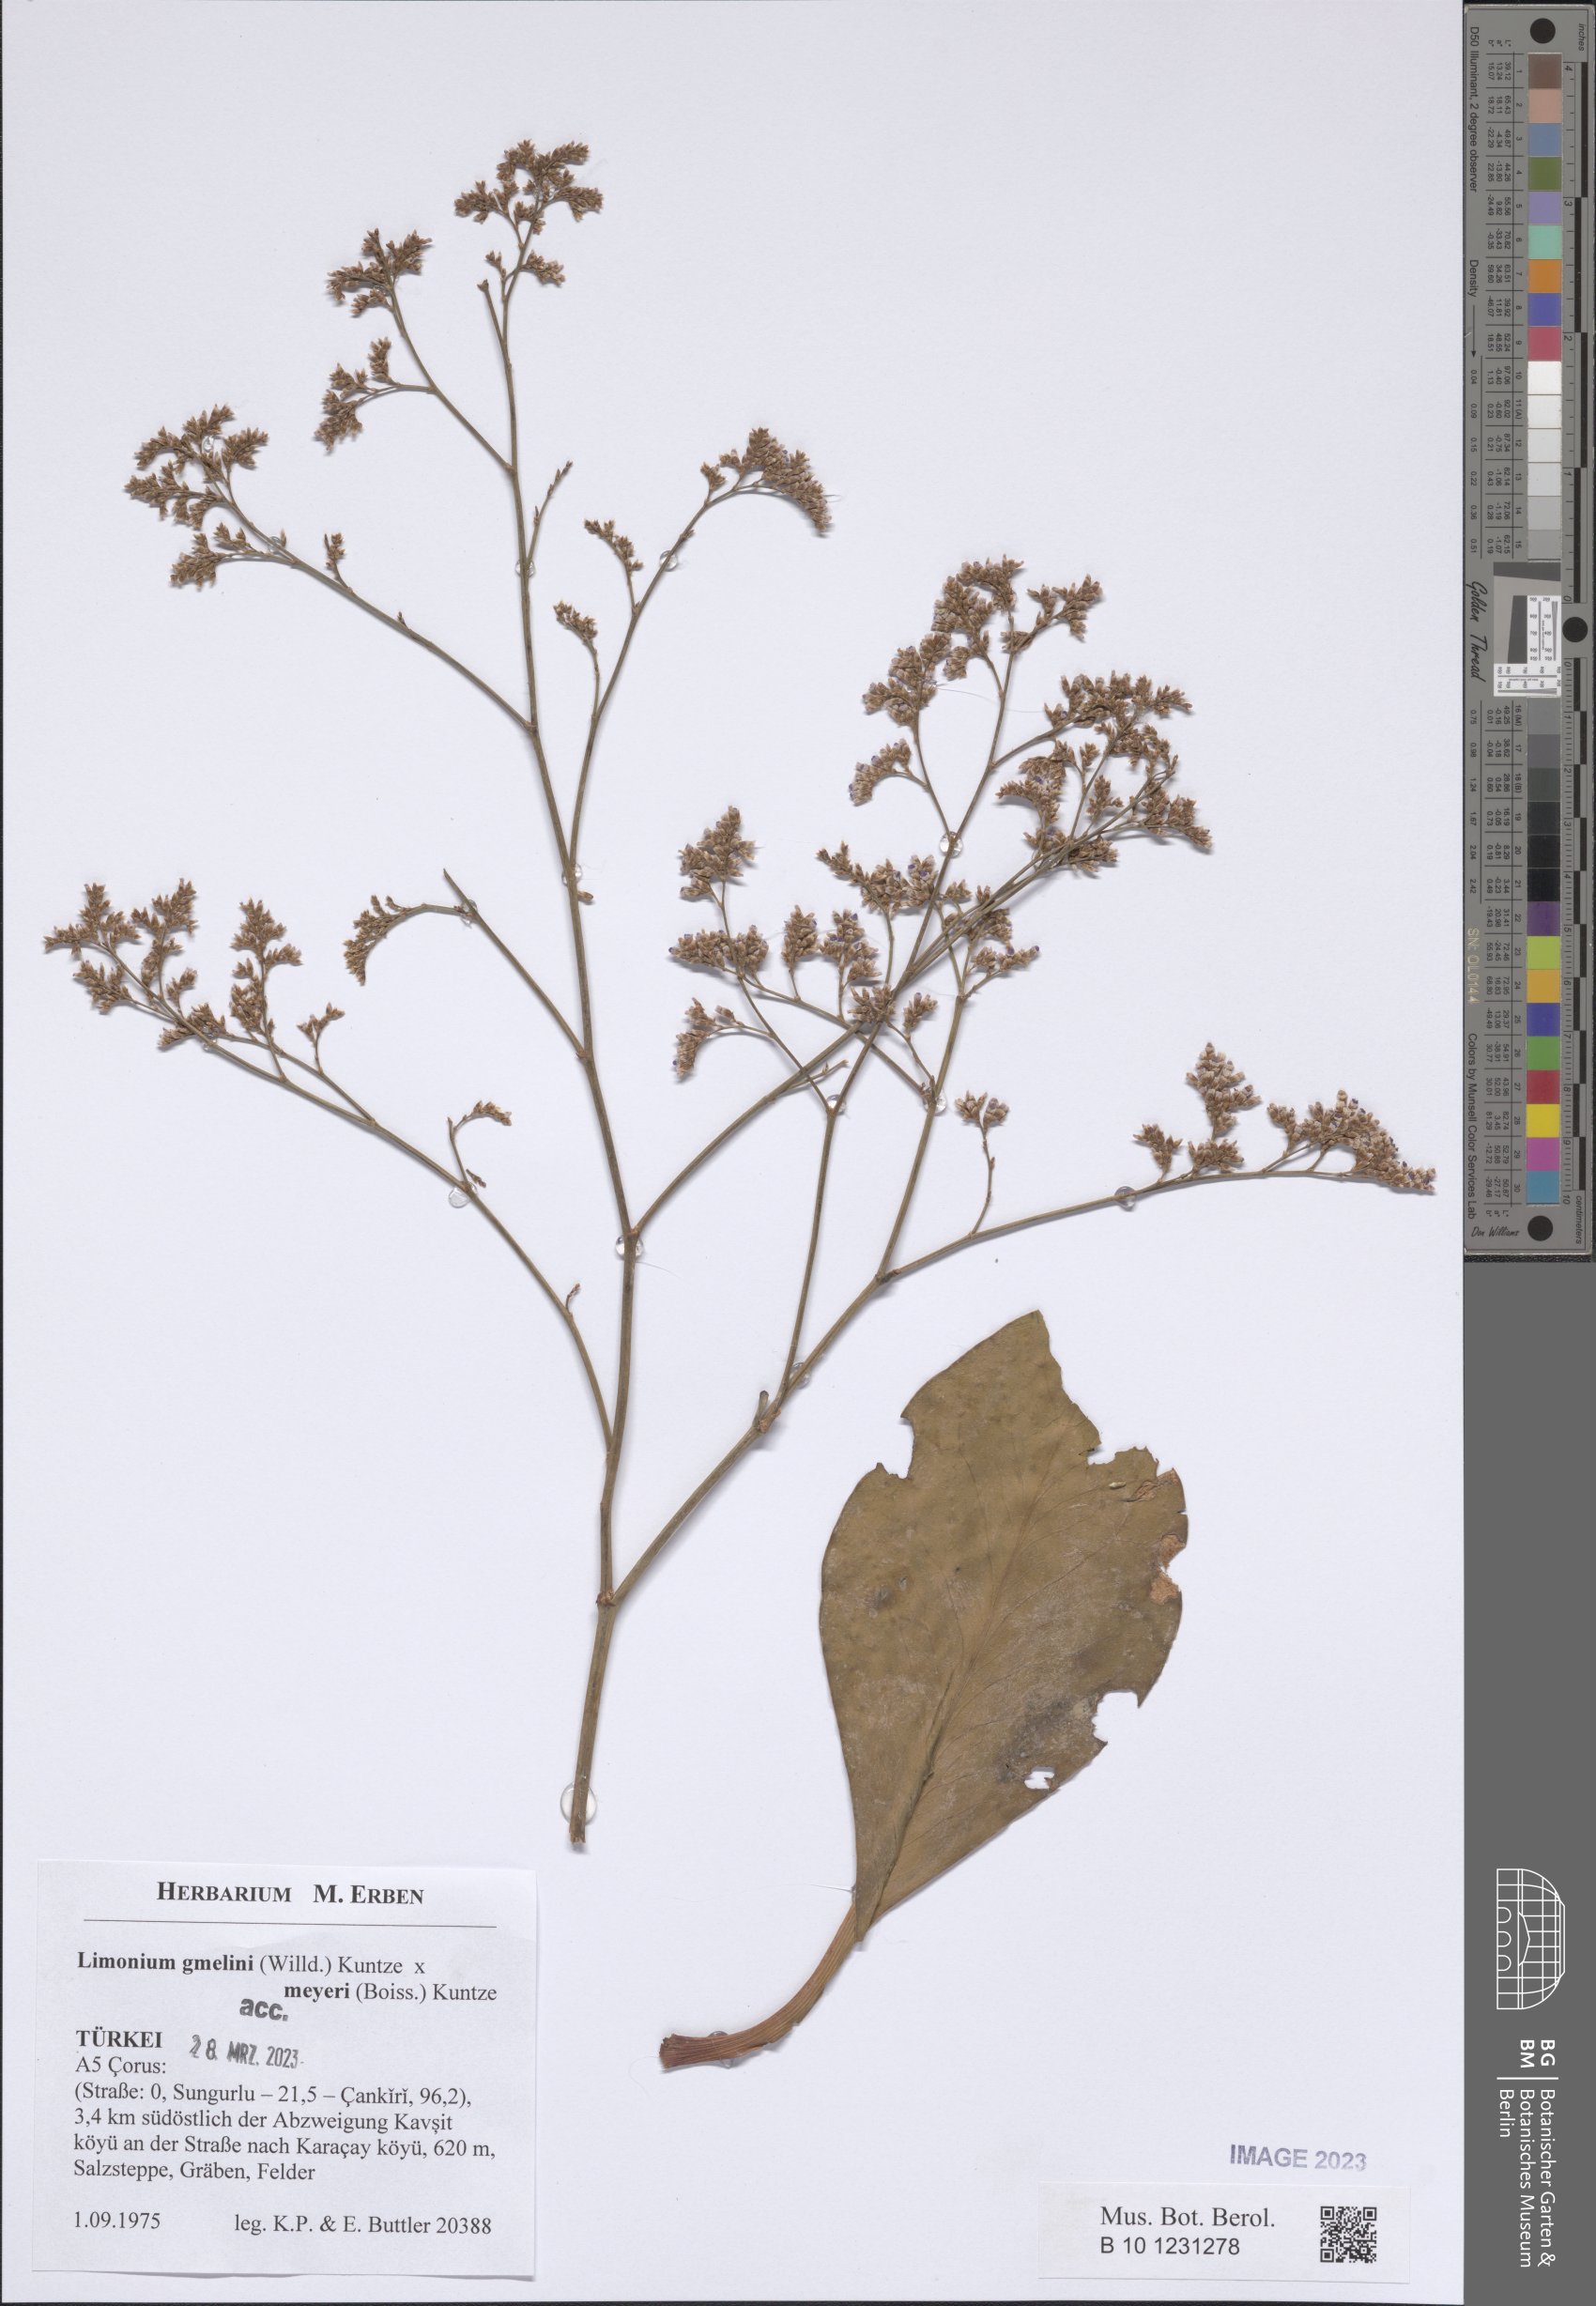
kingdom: Plantae
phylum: Tracheophyta
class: Magnoliopsida
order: Caryophyllales
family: Plumbaginaceae
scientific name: Plumbaginaceae
